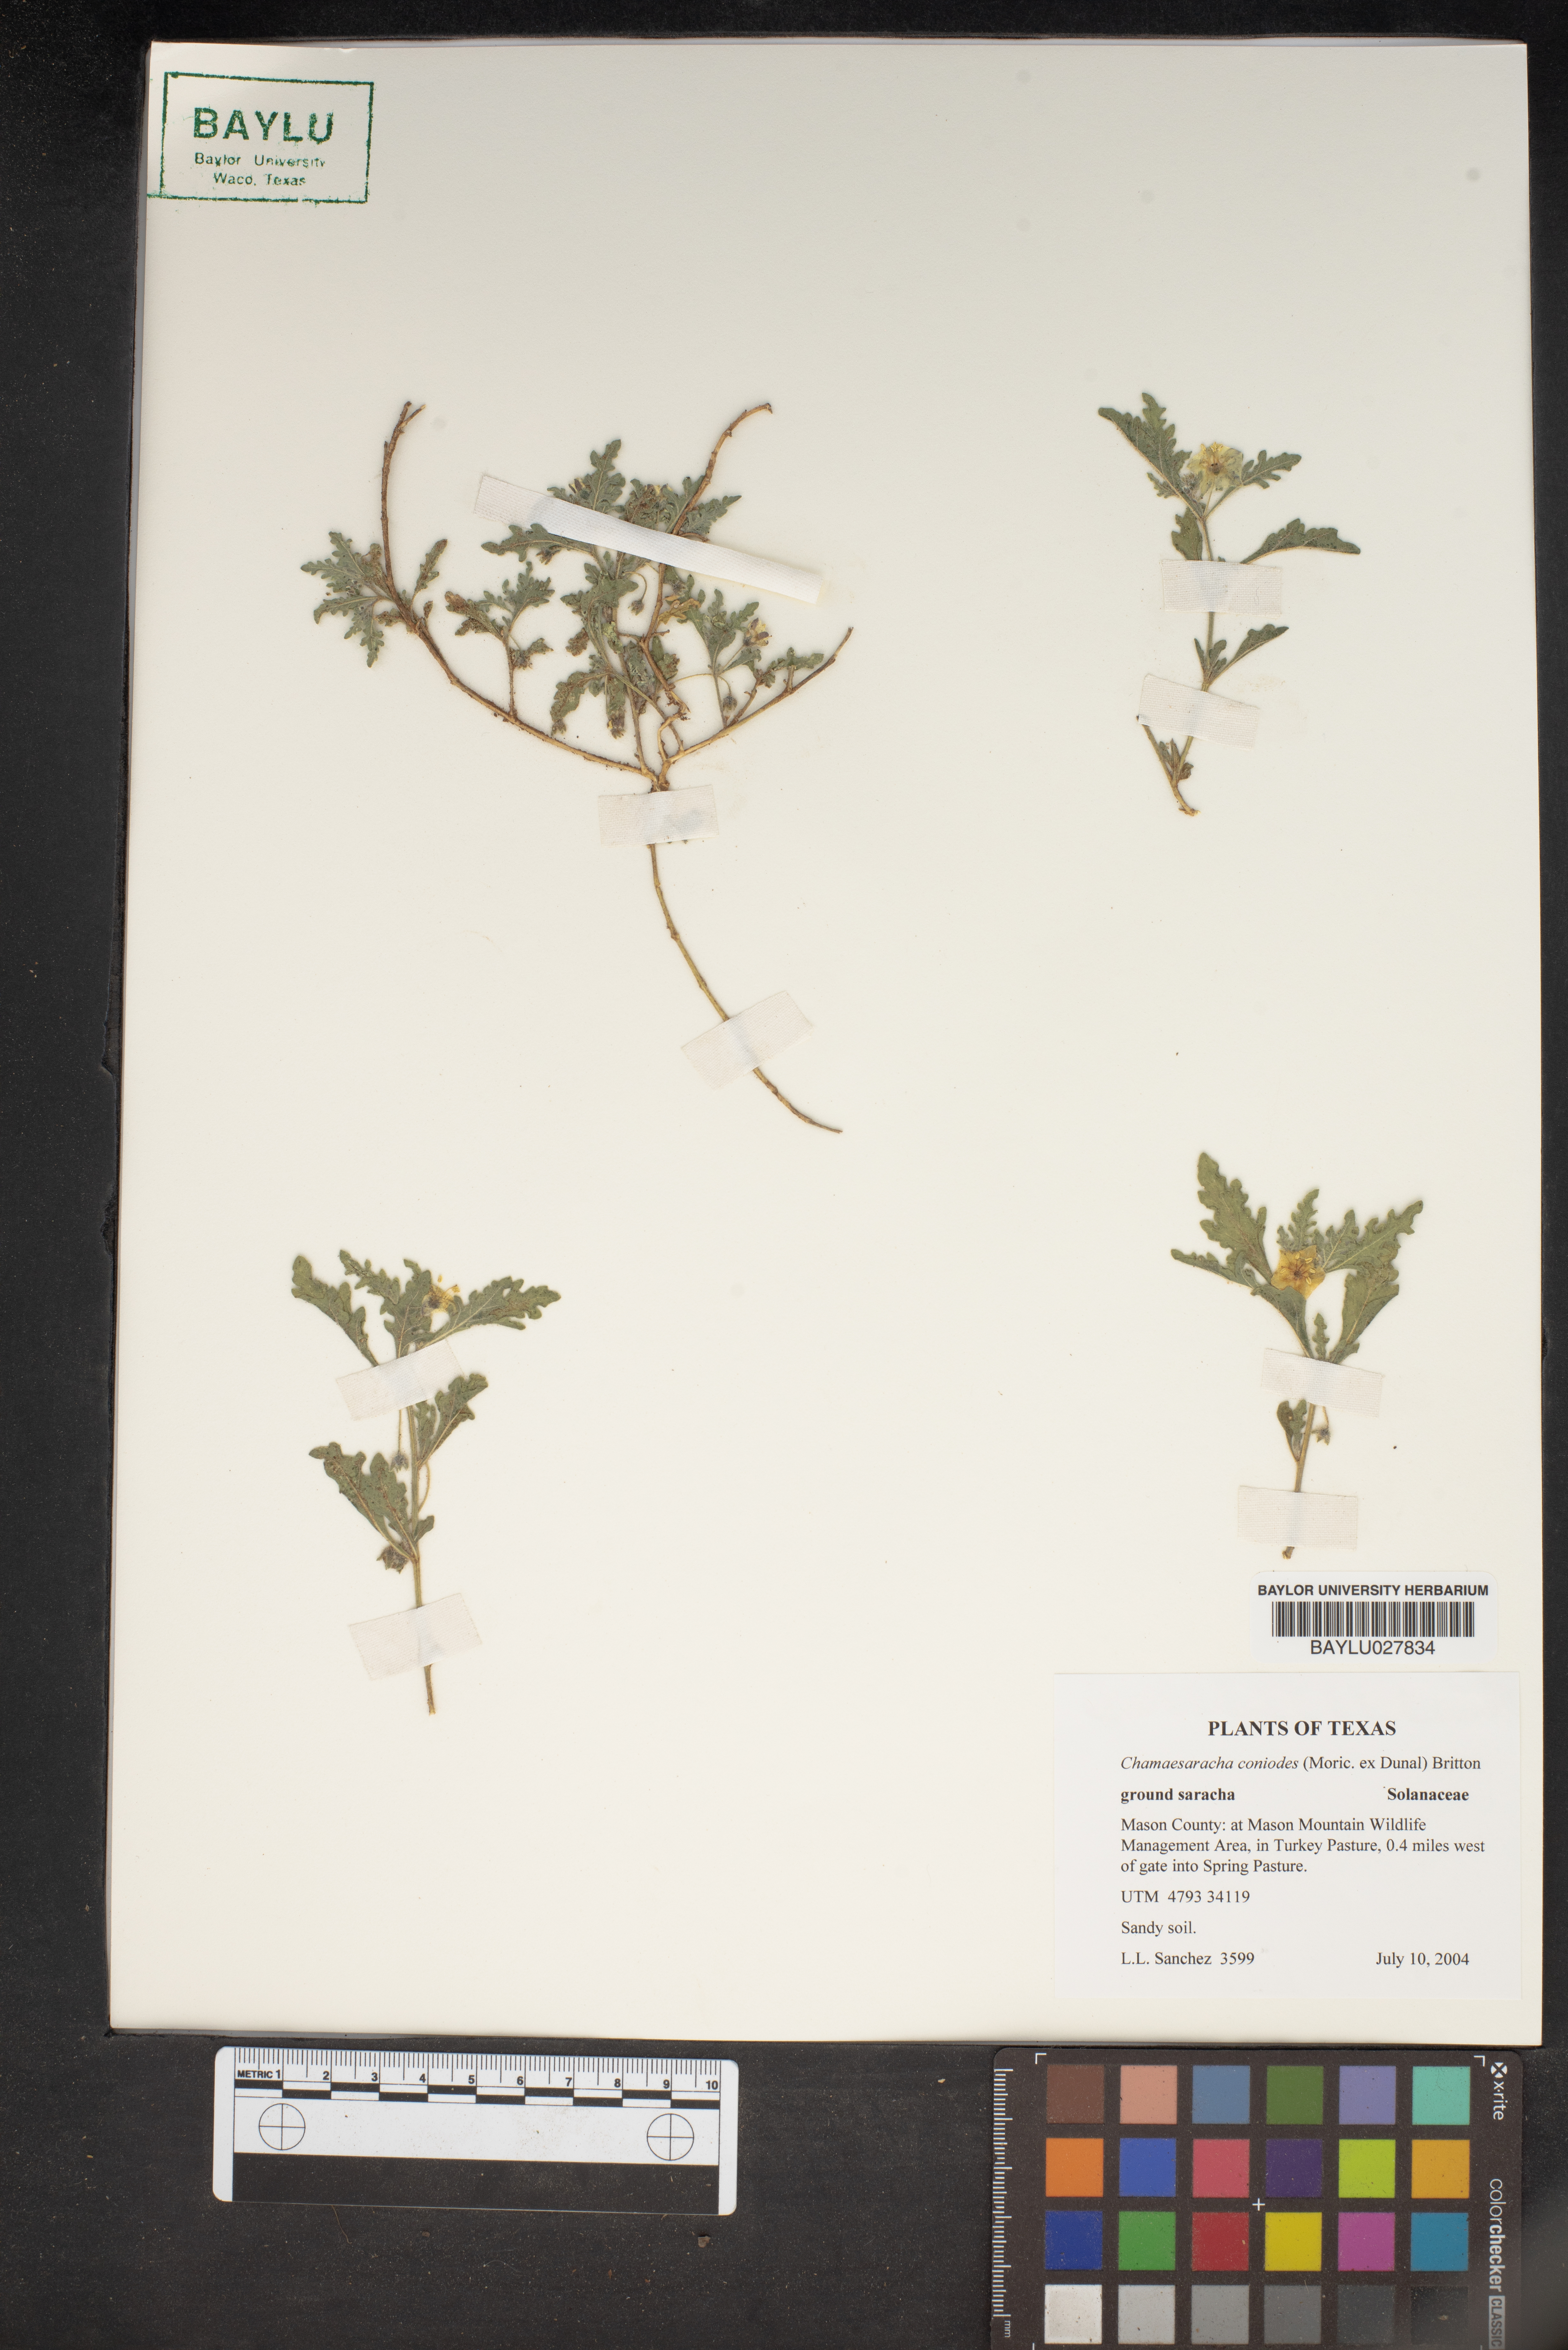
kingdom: Plantae
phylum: Tracheophyta
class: Magnoliopsida
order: Solanales
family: Solanaceae
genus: Chamaesaracha
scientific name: Chamaesaracha coniodes
